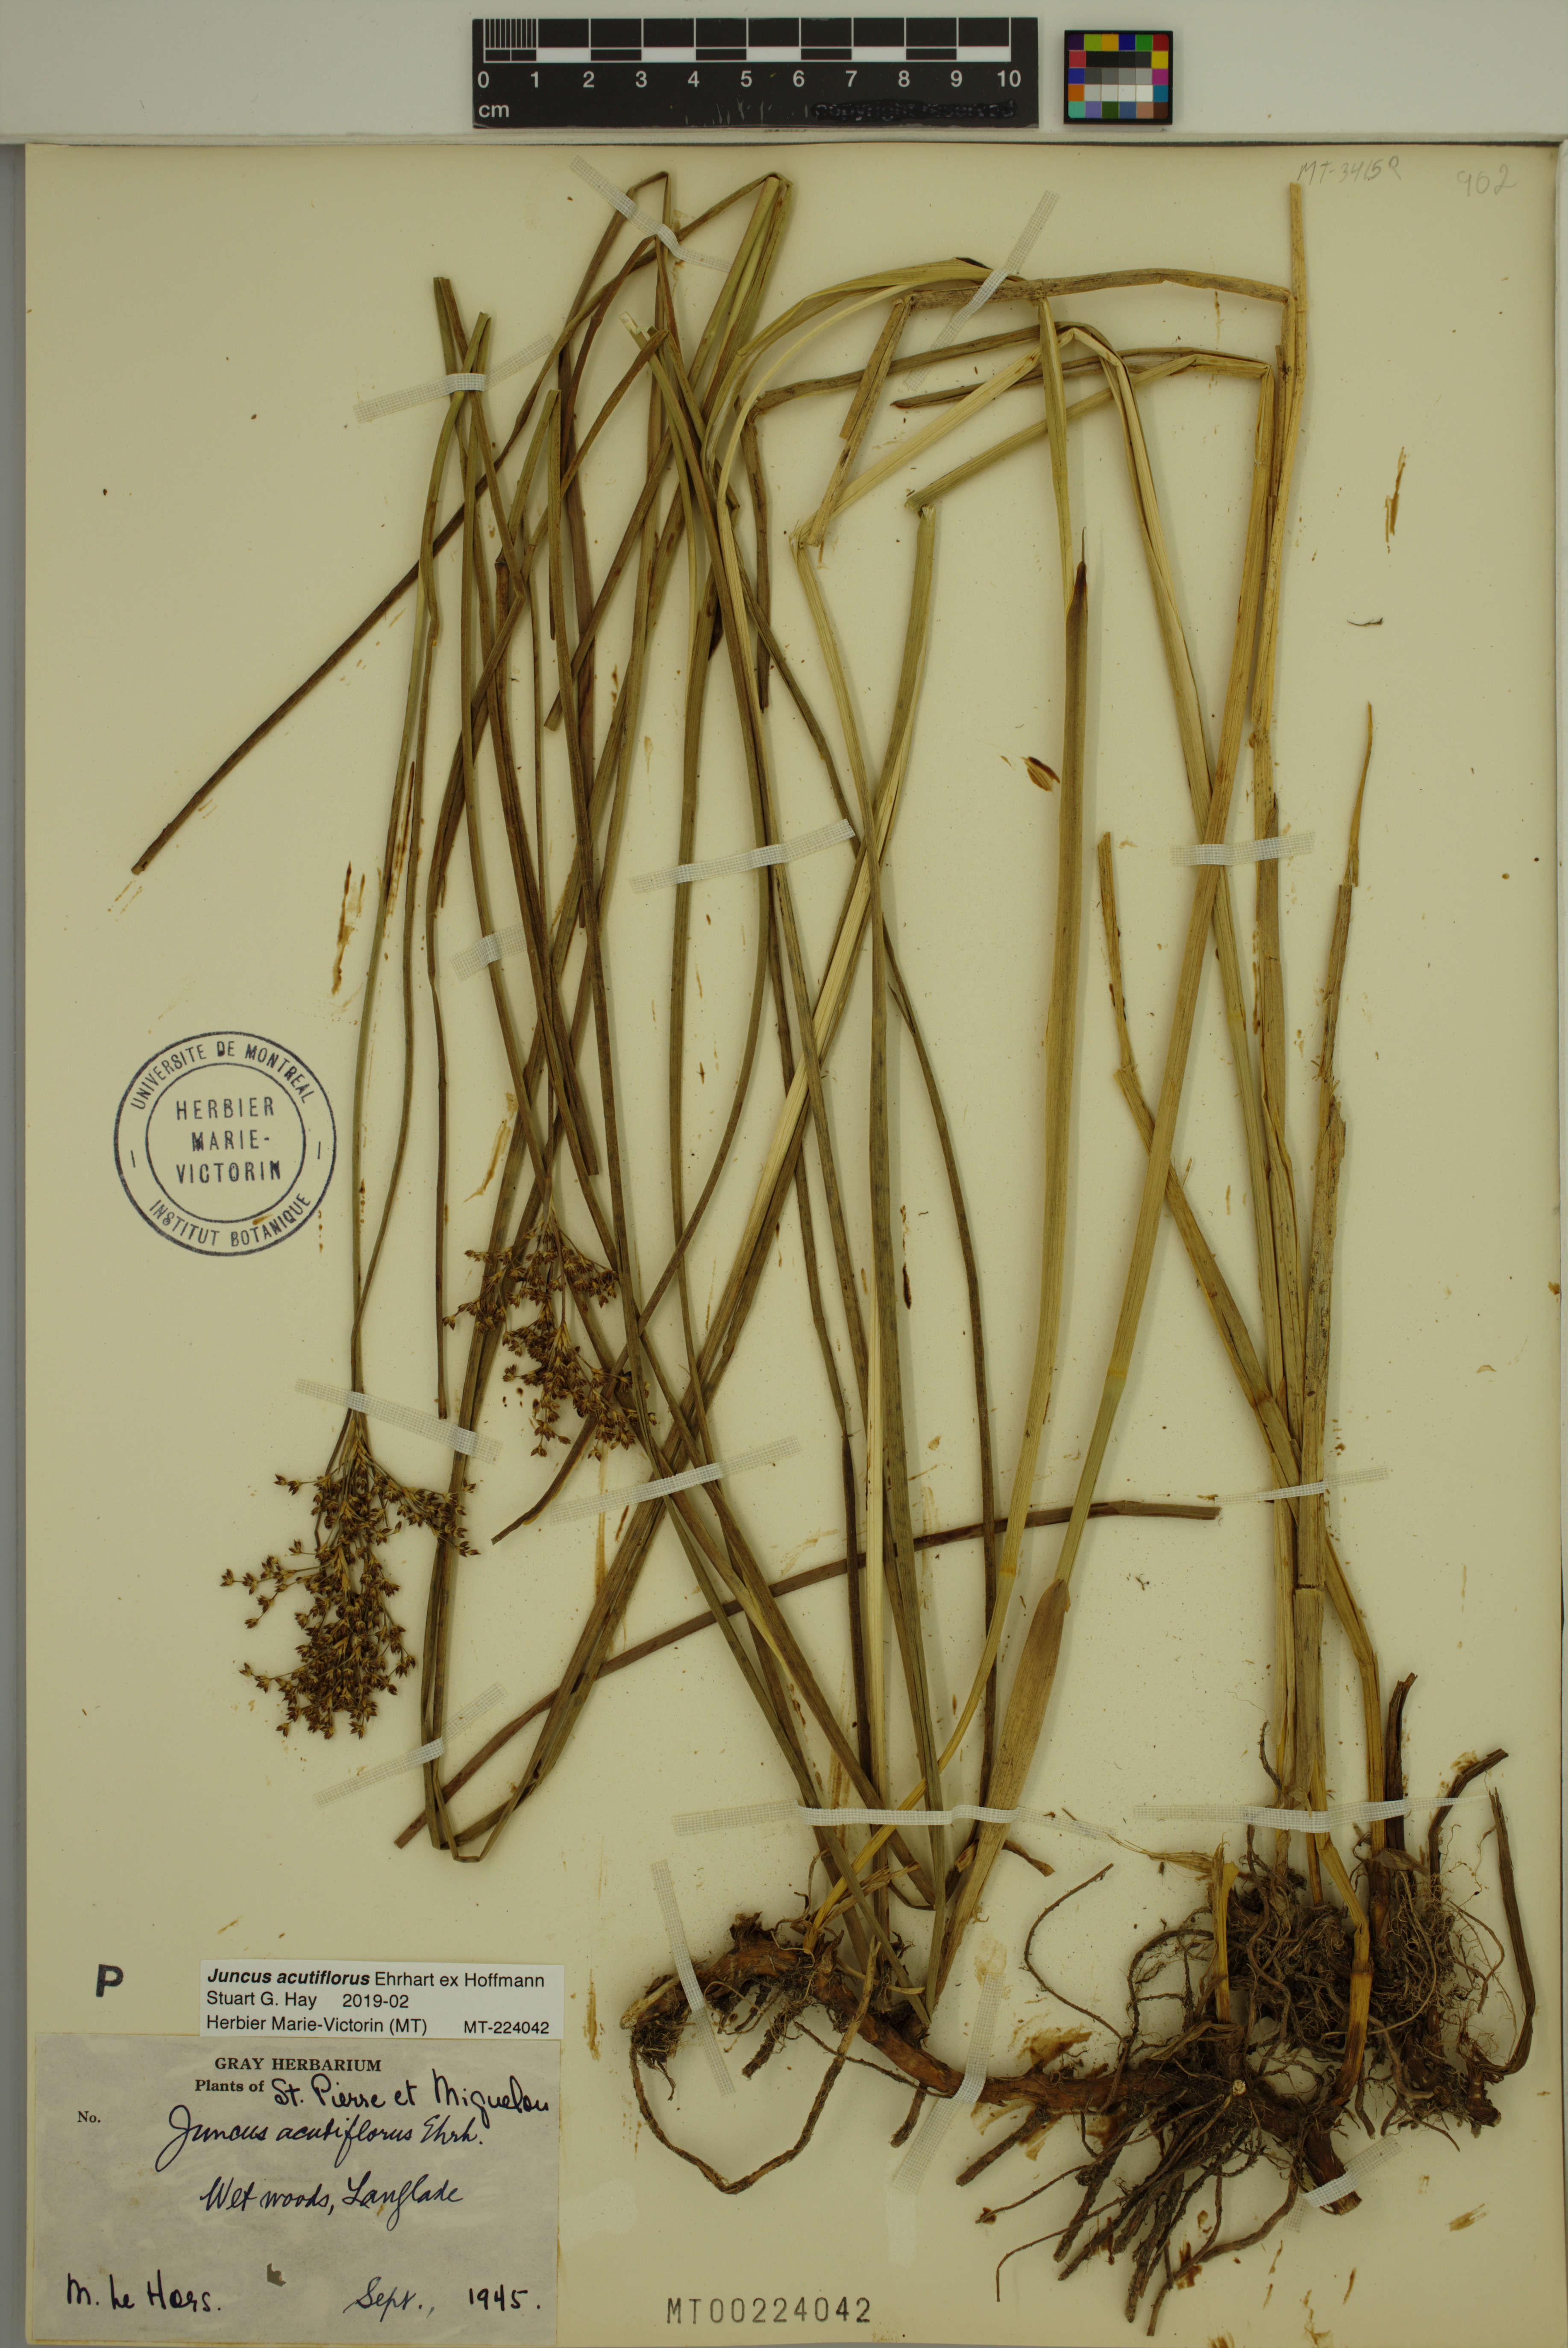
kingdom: Plantae
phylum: Tracheophyta
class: Liliopsida
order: Poales
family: Juncaceae
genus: Juncus
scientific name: Juncus acutiflorus
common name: Sharp-flowered rush
